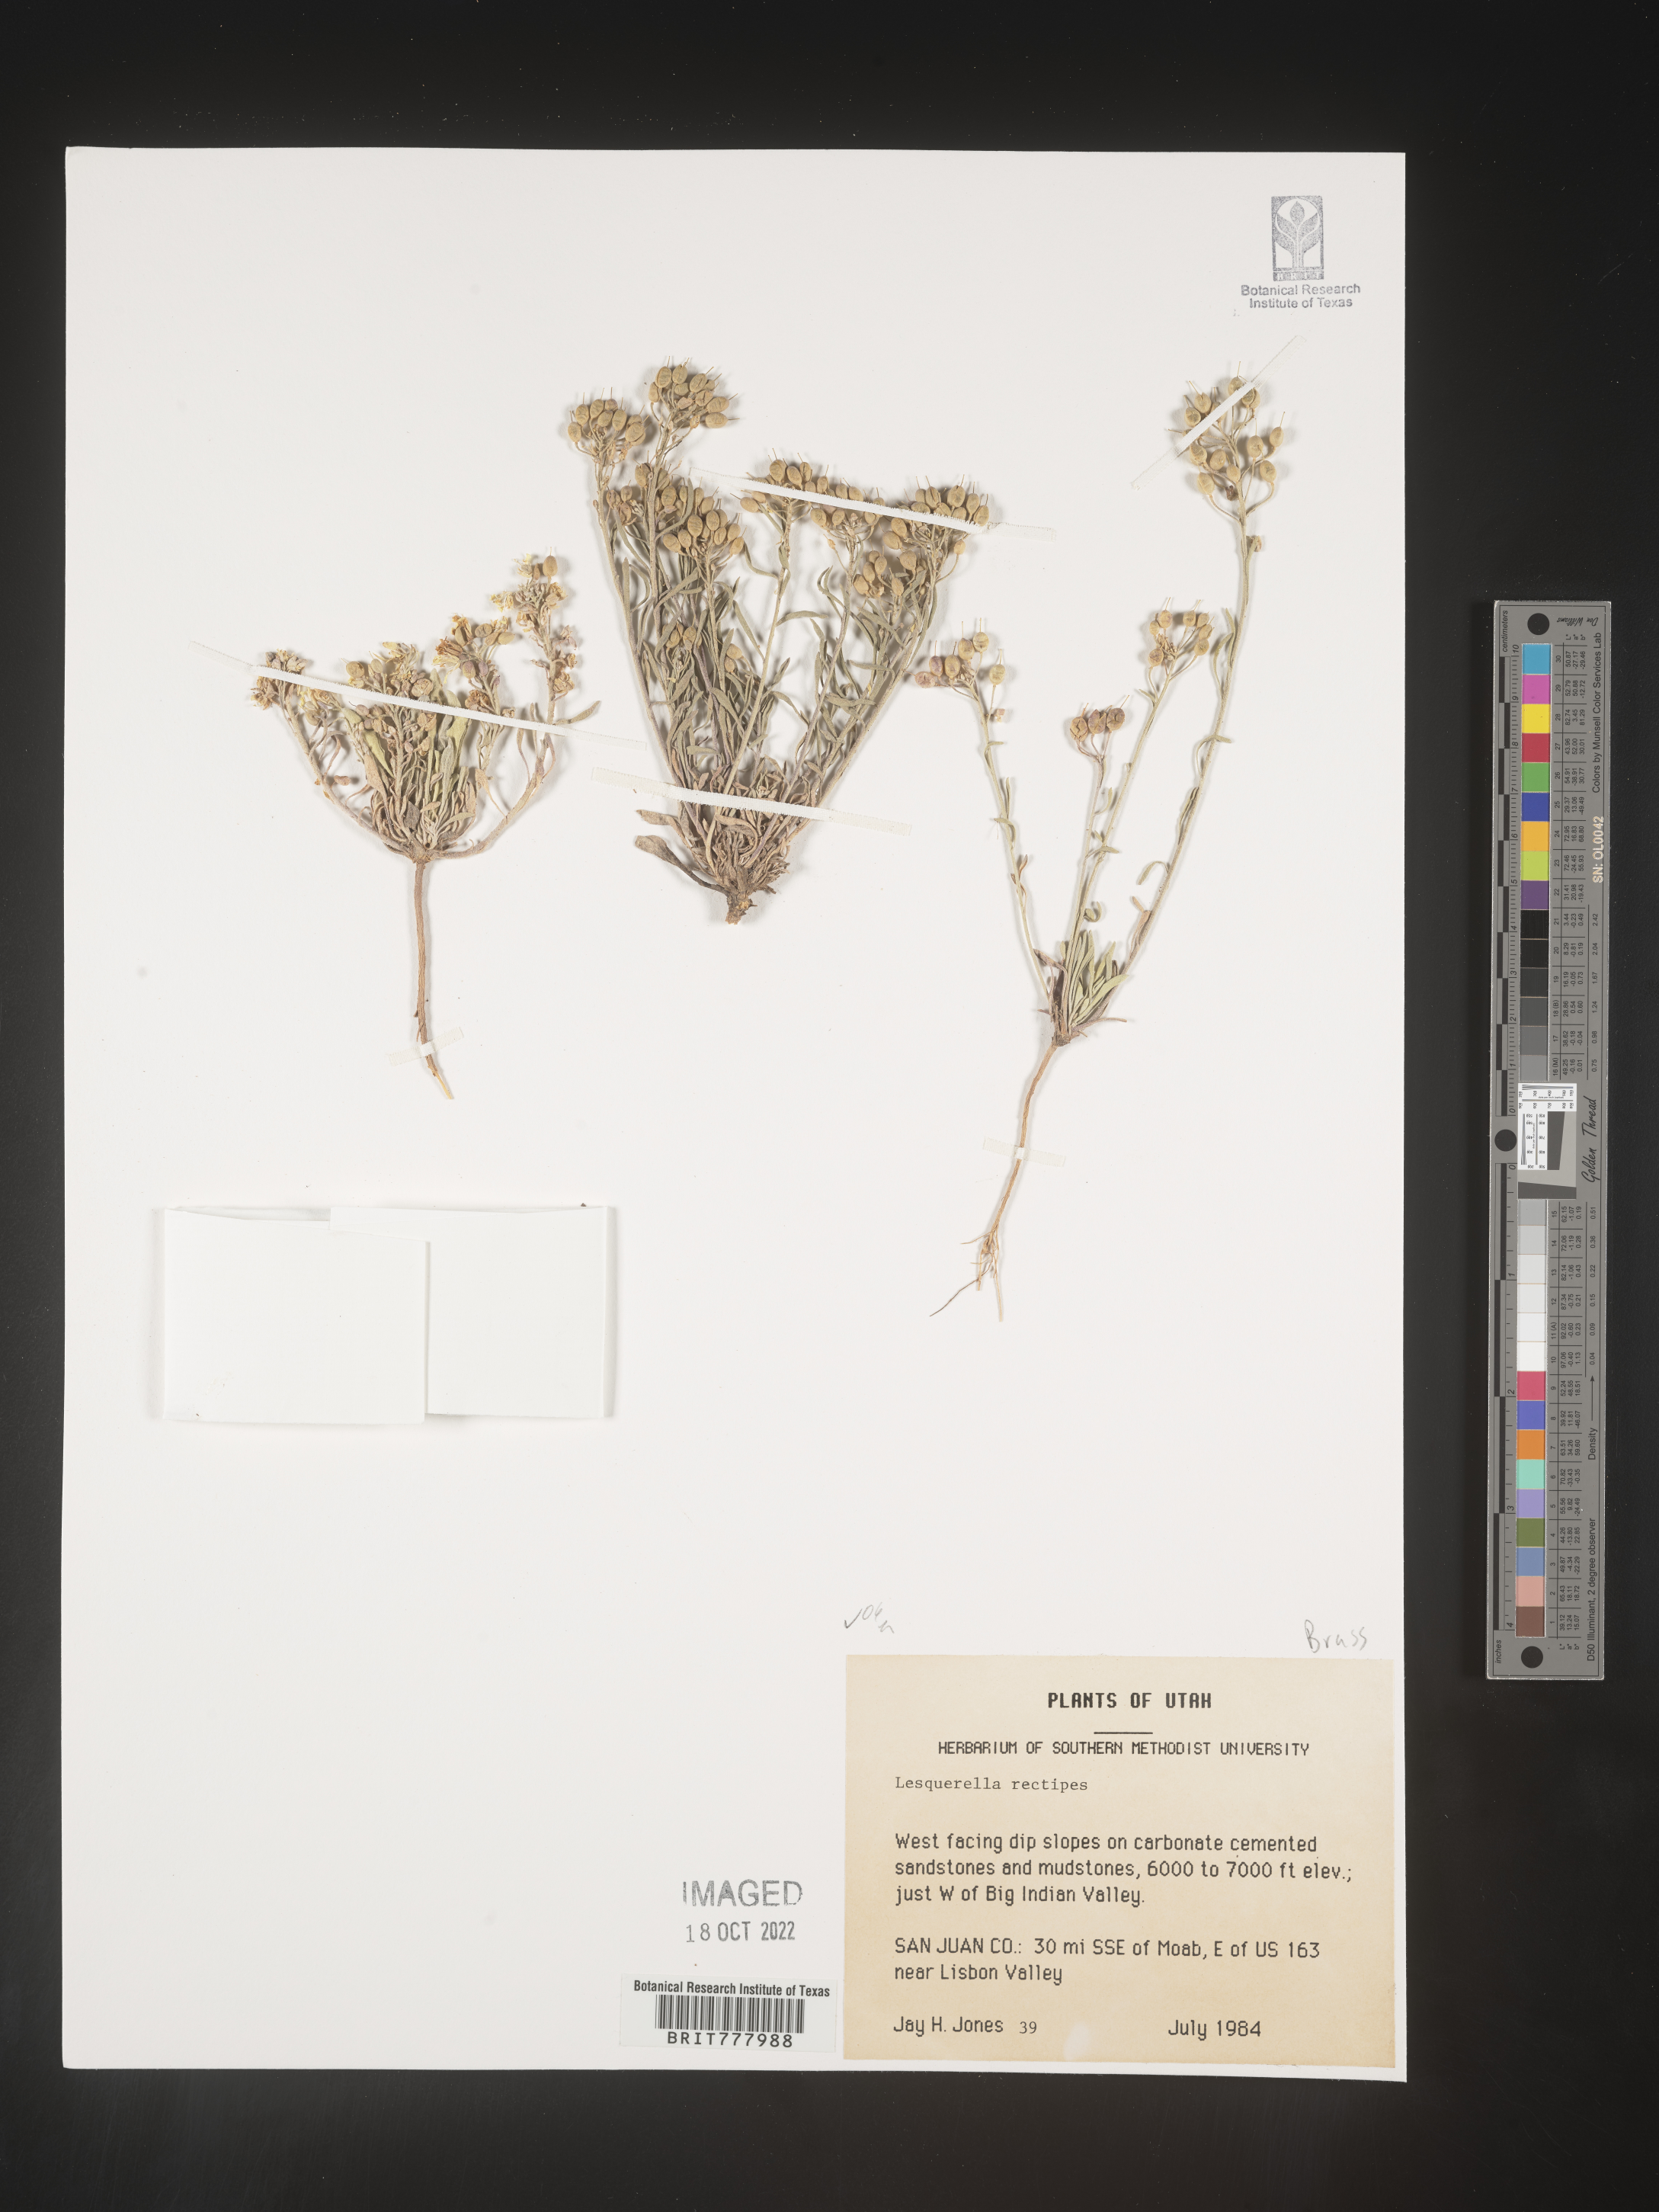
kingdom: Chromista
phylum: Cercozoa
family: Psammonobiotidae
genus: Lesquerella
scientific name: Lesquerella
